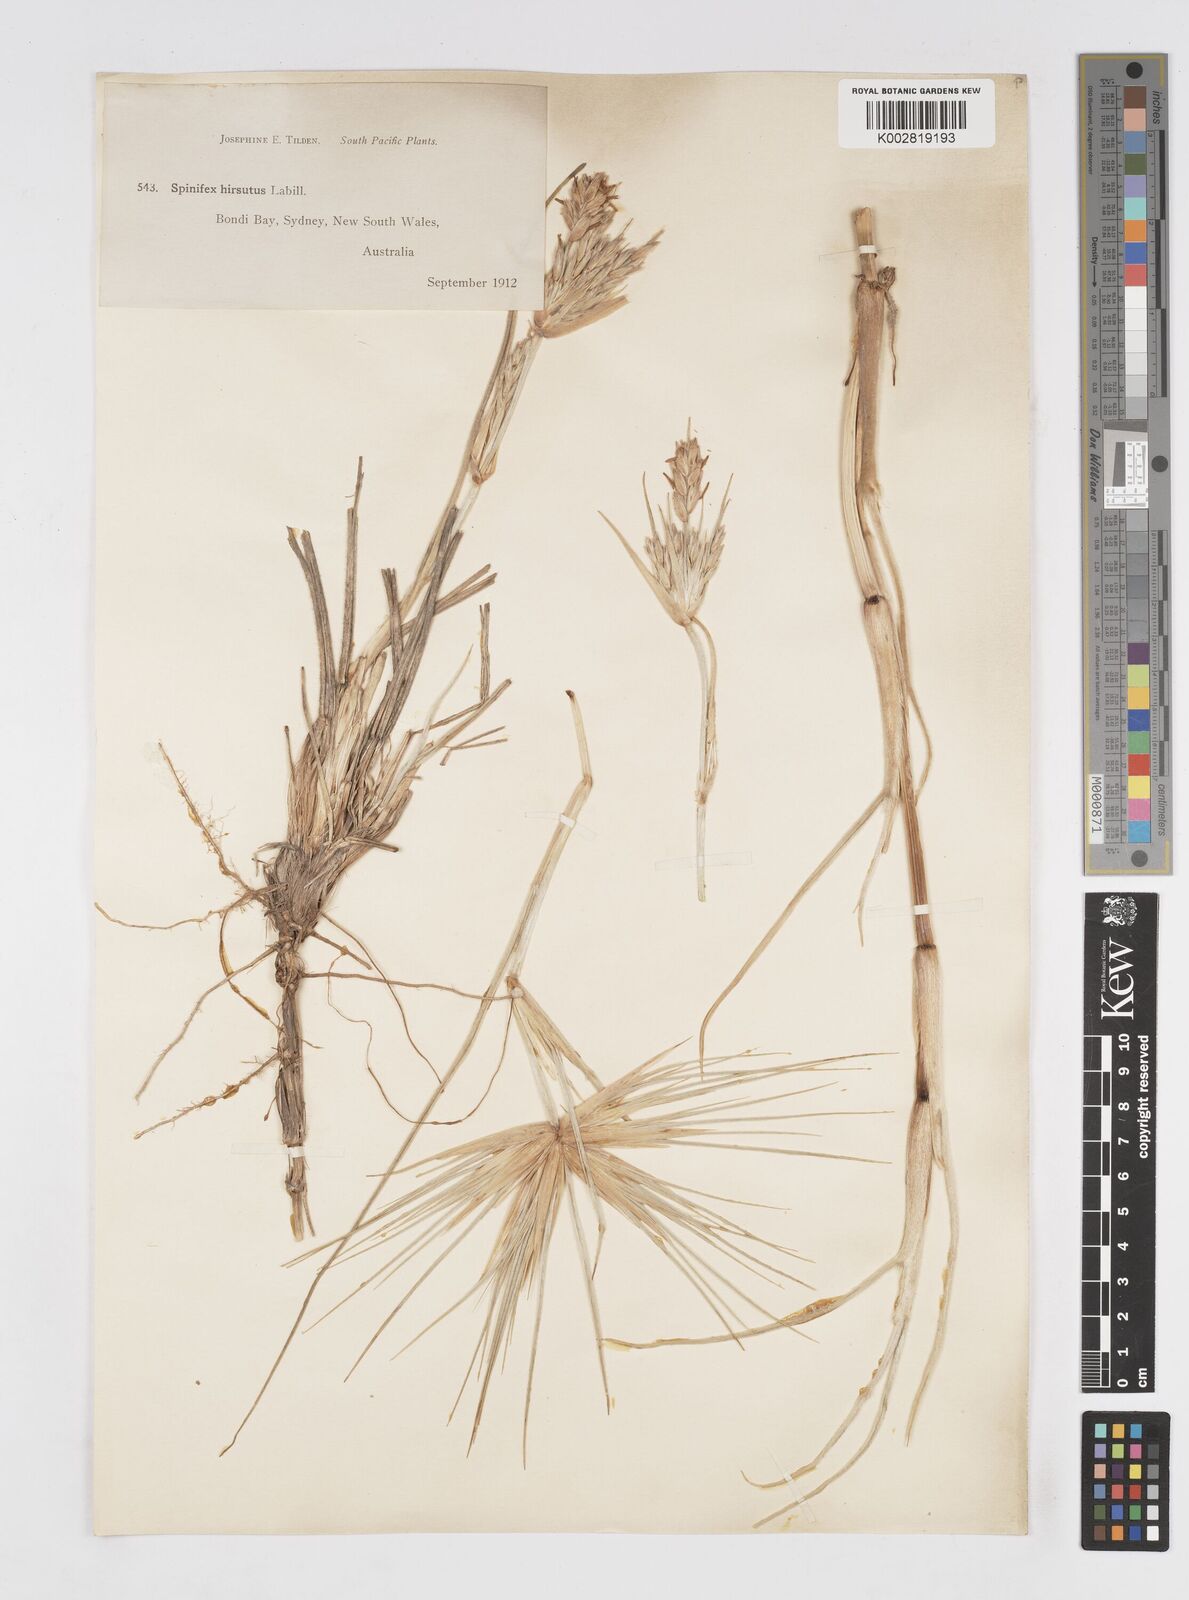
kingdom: Plantae
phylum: Tracheophyta
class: Liliopsida
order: Poales
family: Poaceae
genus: Spinifex
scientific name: Spinifex sericeus
